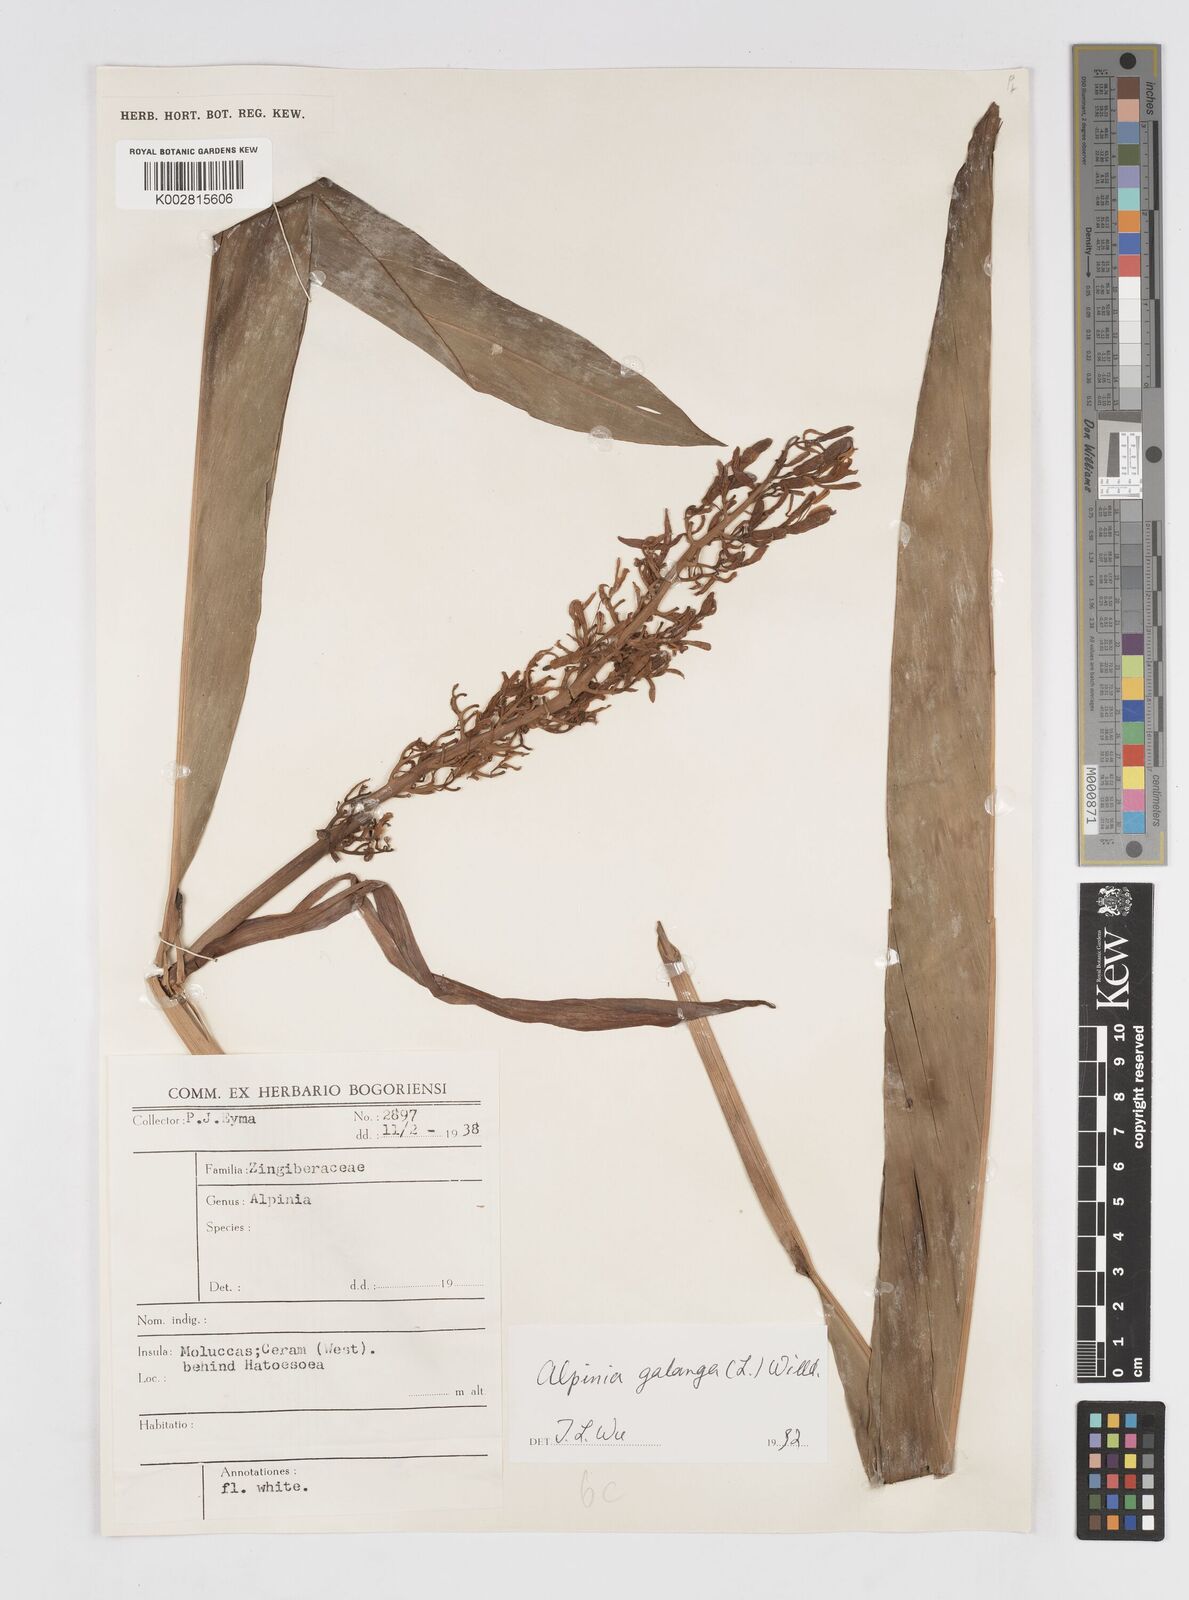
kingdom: Plantae
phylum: Tracheophyta
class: Liliopsida
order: Zingiberales
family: Zingiberaceae
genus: Alpinia
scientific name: Alpinia galanga
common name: Siamese-ginger
